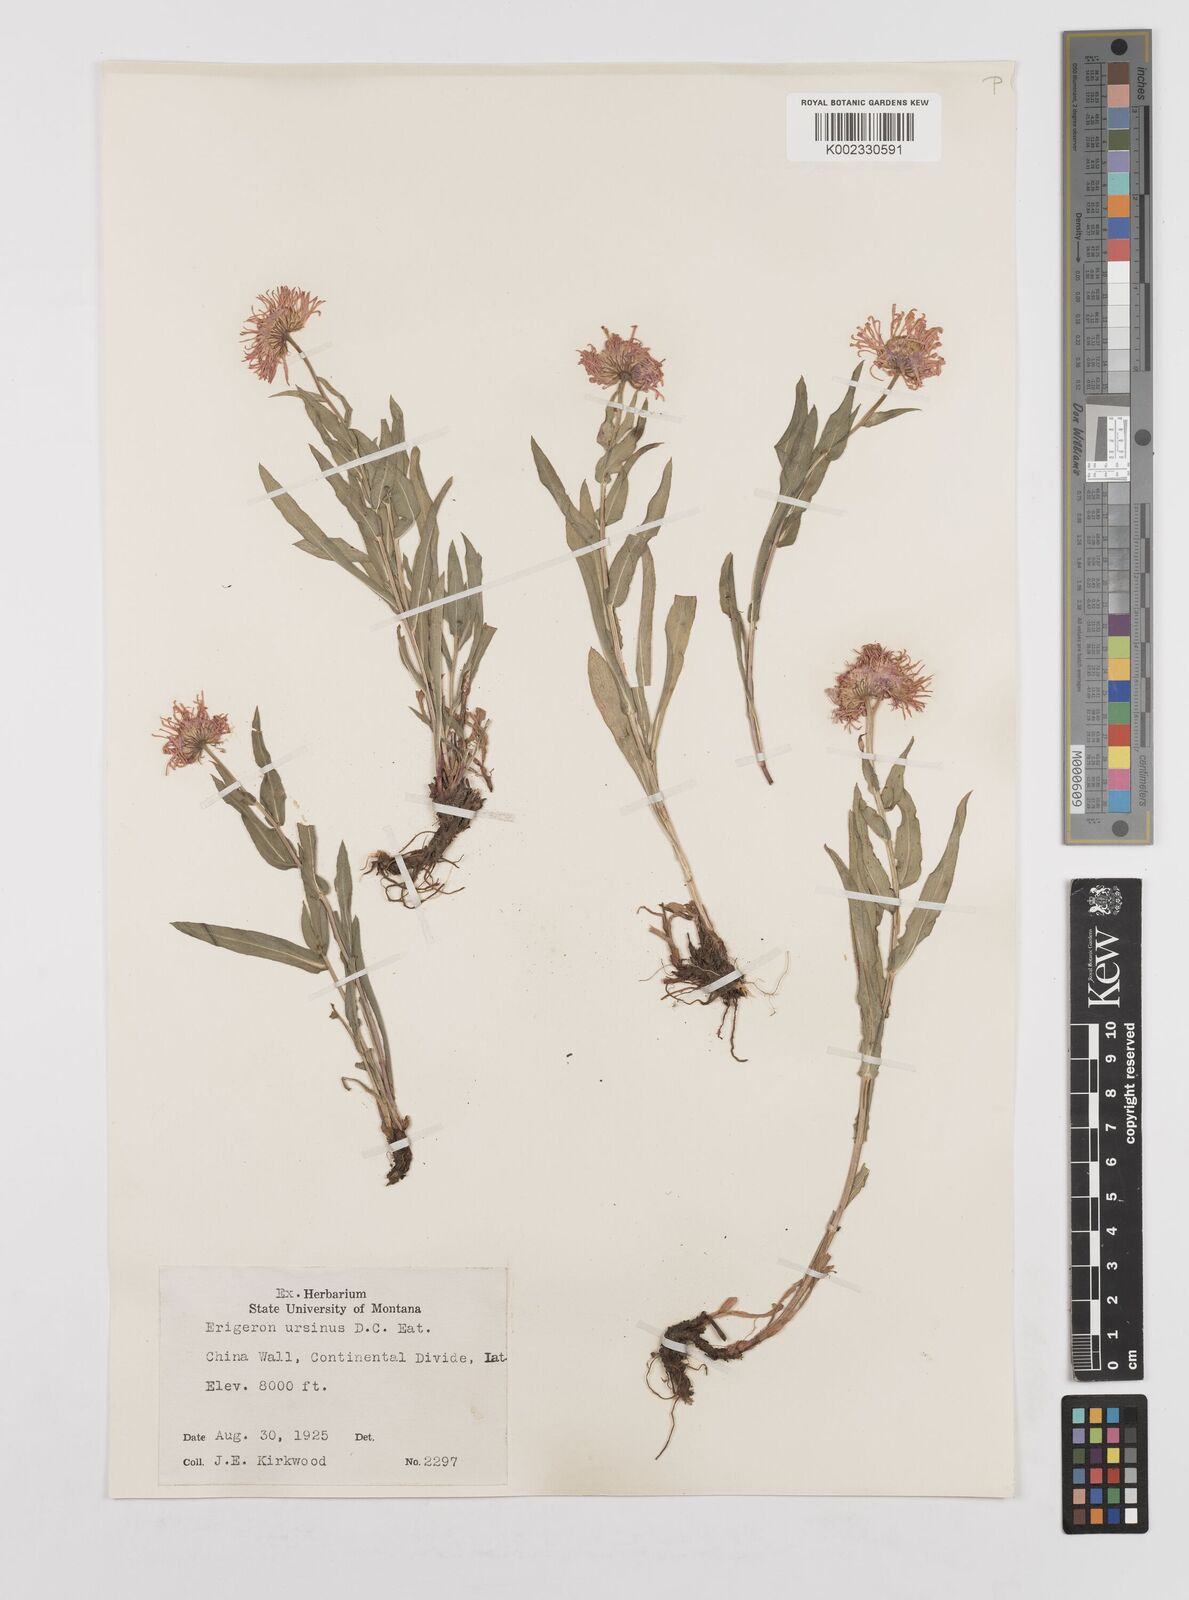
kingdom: Plantae
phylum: Tracheophyta
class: Magnoliopsida
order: Asterales
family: Asteraceae
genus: Erigeron
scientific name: Erigeron ursinus
